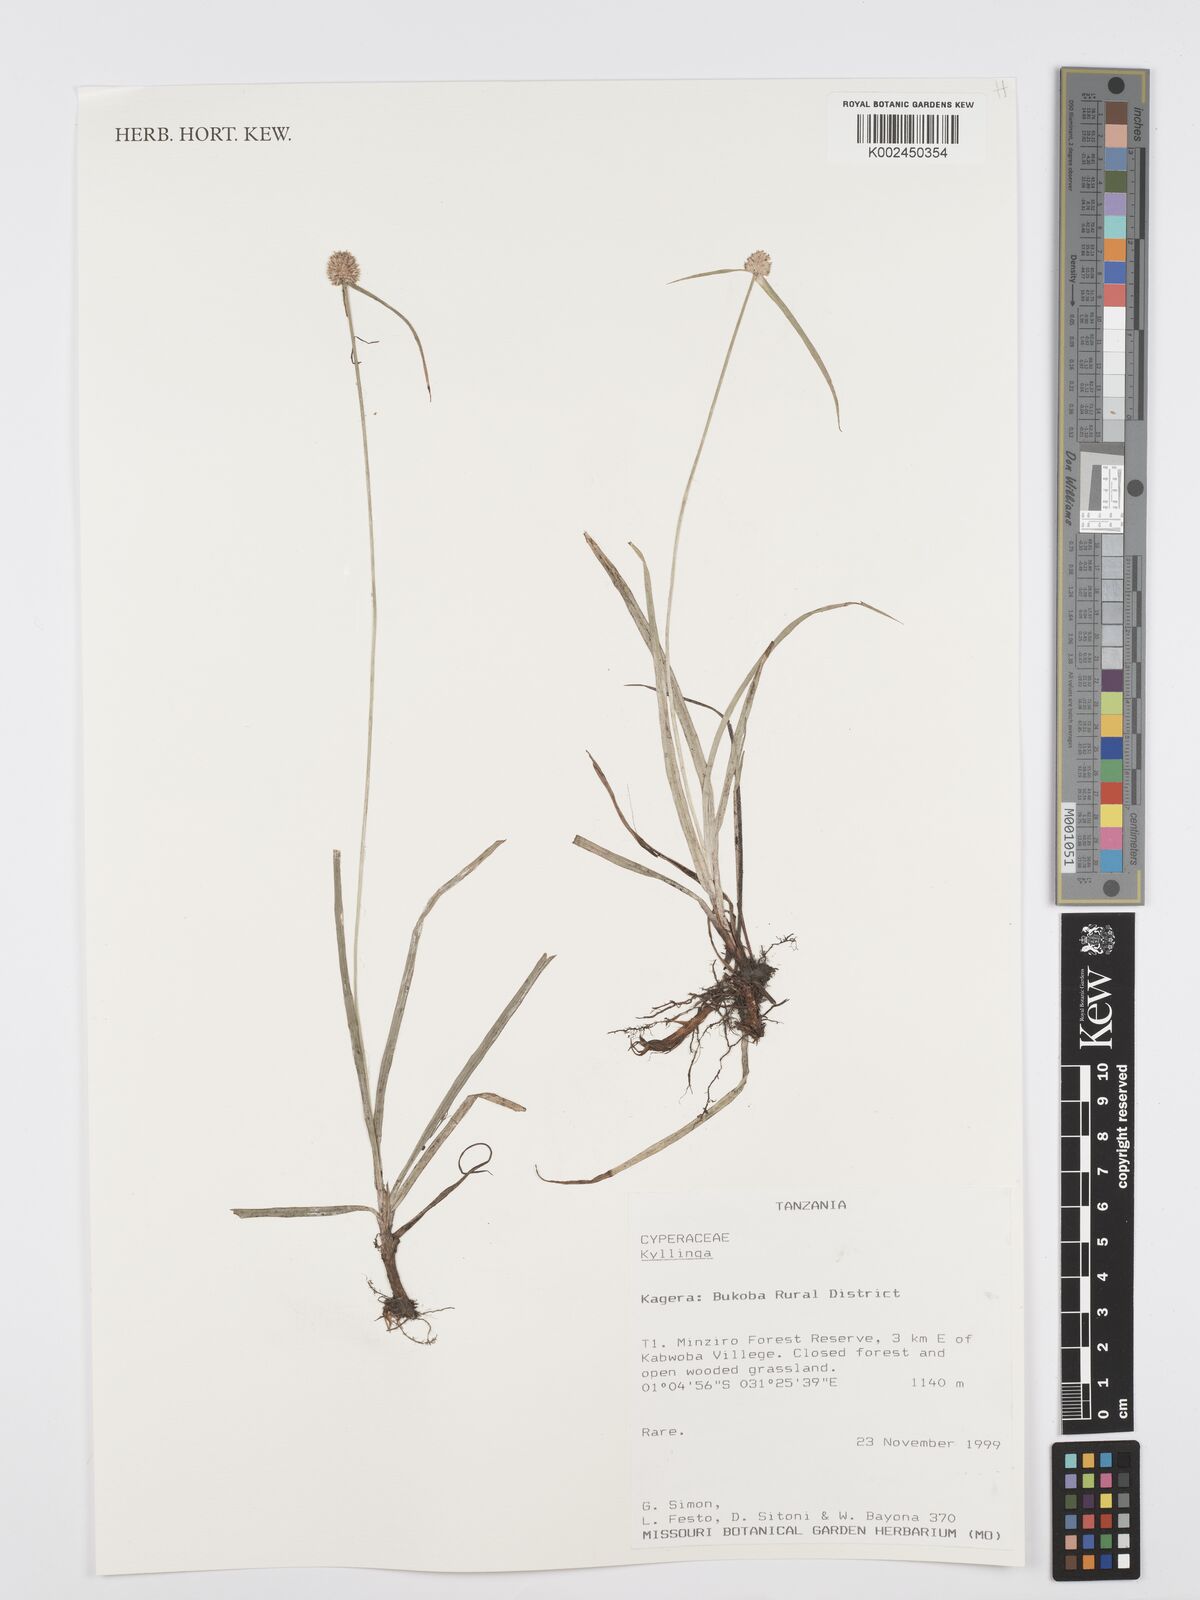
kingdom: Plantae
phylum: Tracheophyta
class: Liliopsida
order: Poales
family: Cyperaceae
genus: Cyperus
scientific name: Cyperus
